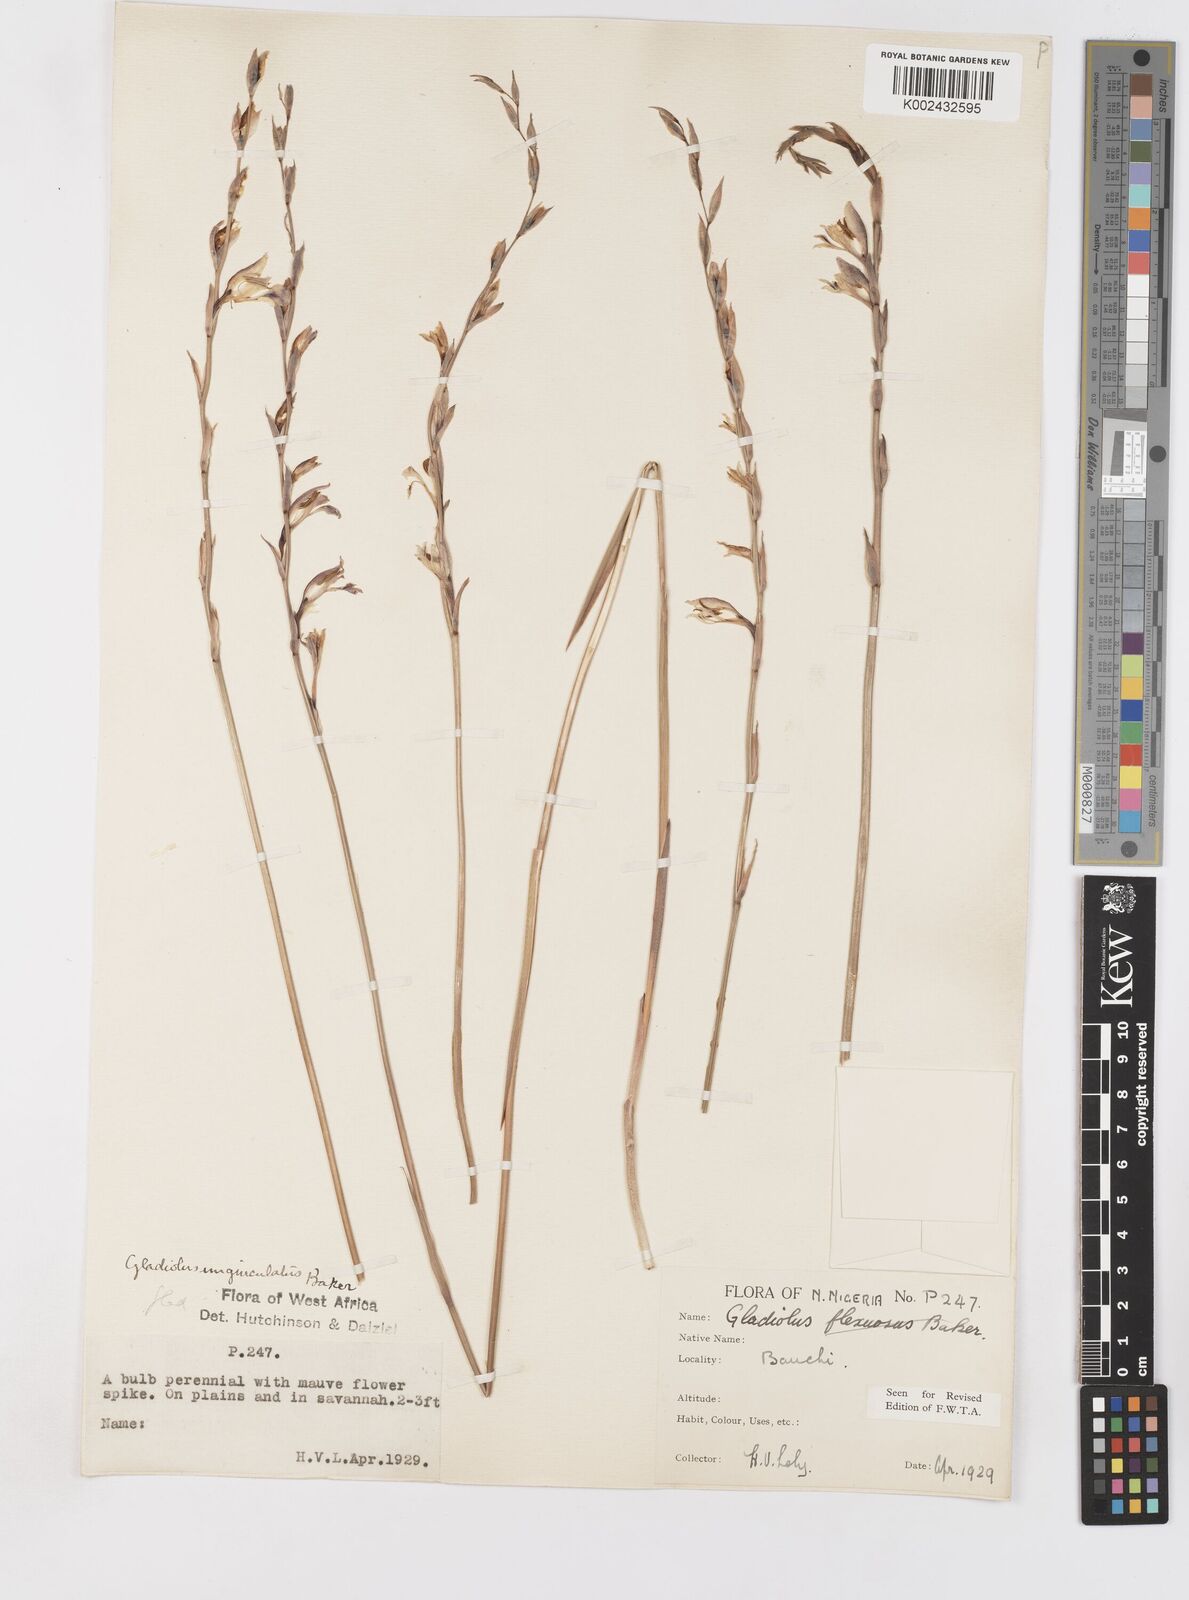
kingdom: Plantae
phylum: Tracheophyta
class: Liliopsida
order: Asparagales
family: Iridaceae
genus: Gladiolus
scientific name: Gladiolus unguiculatus
